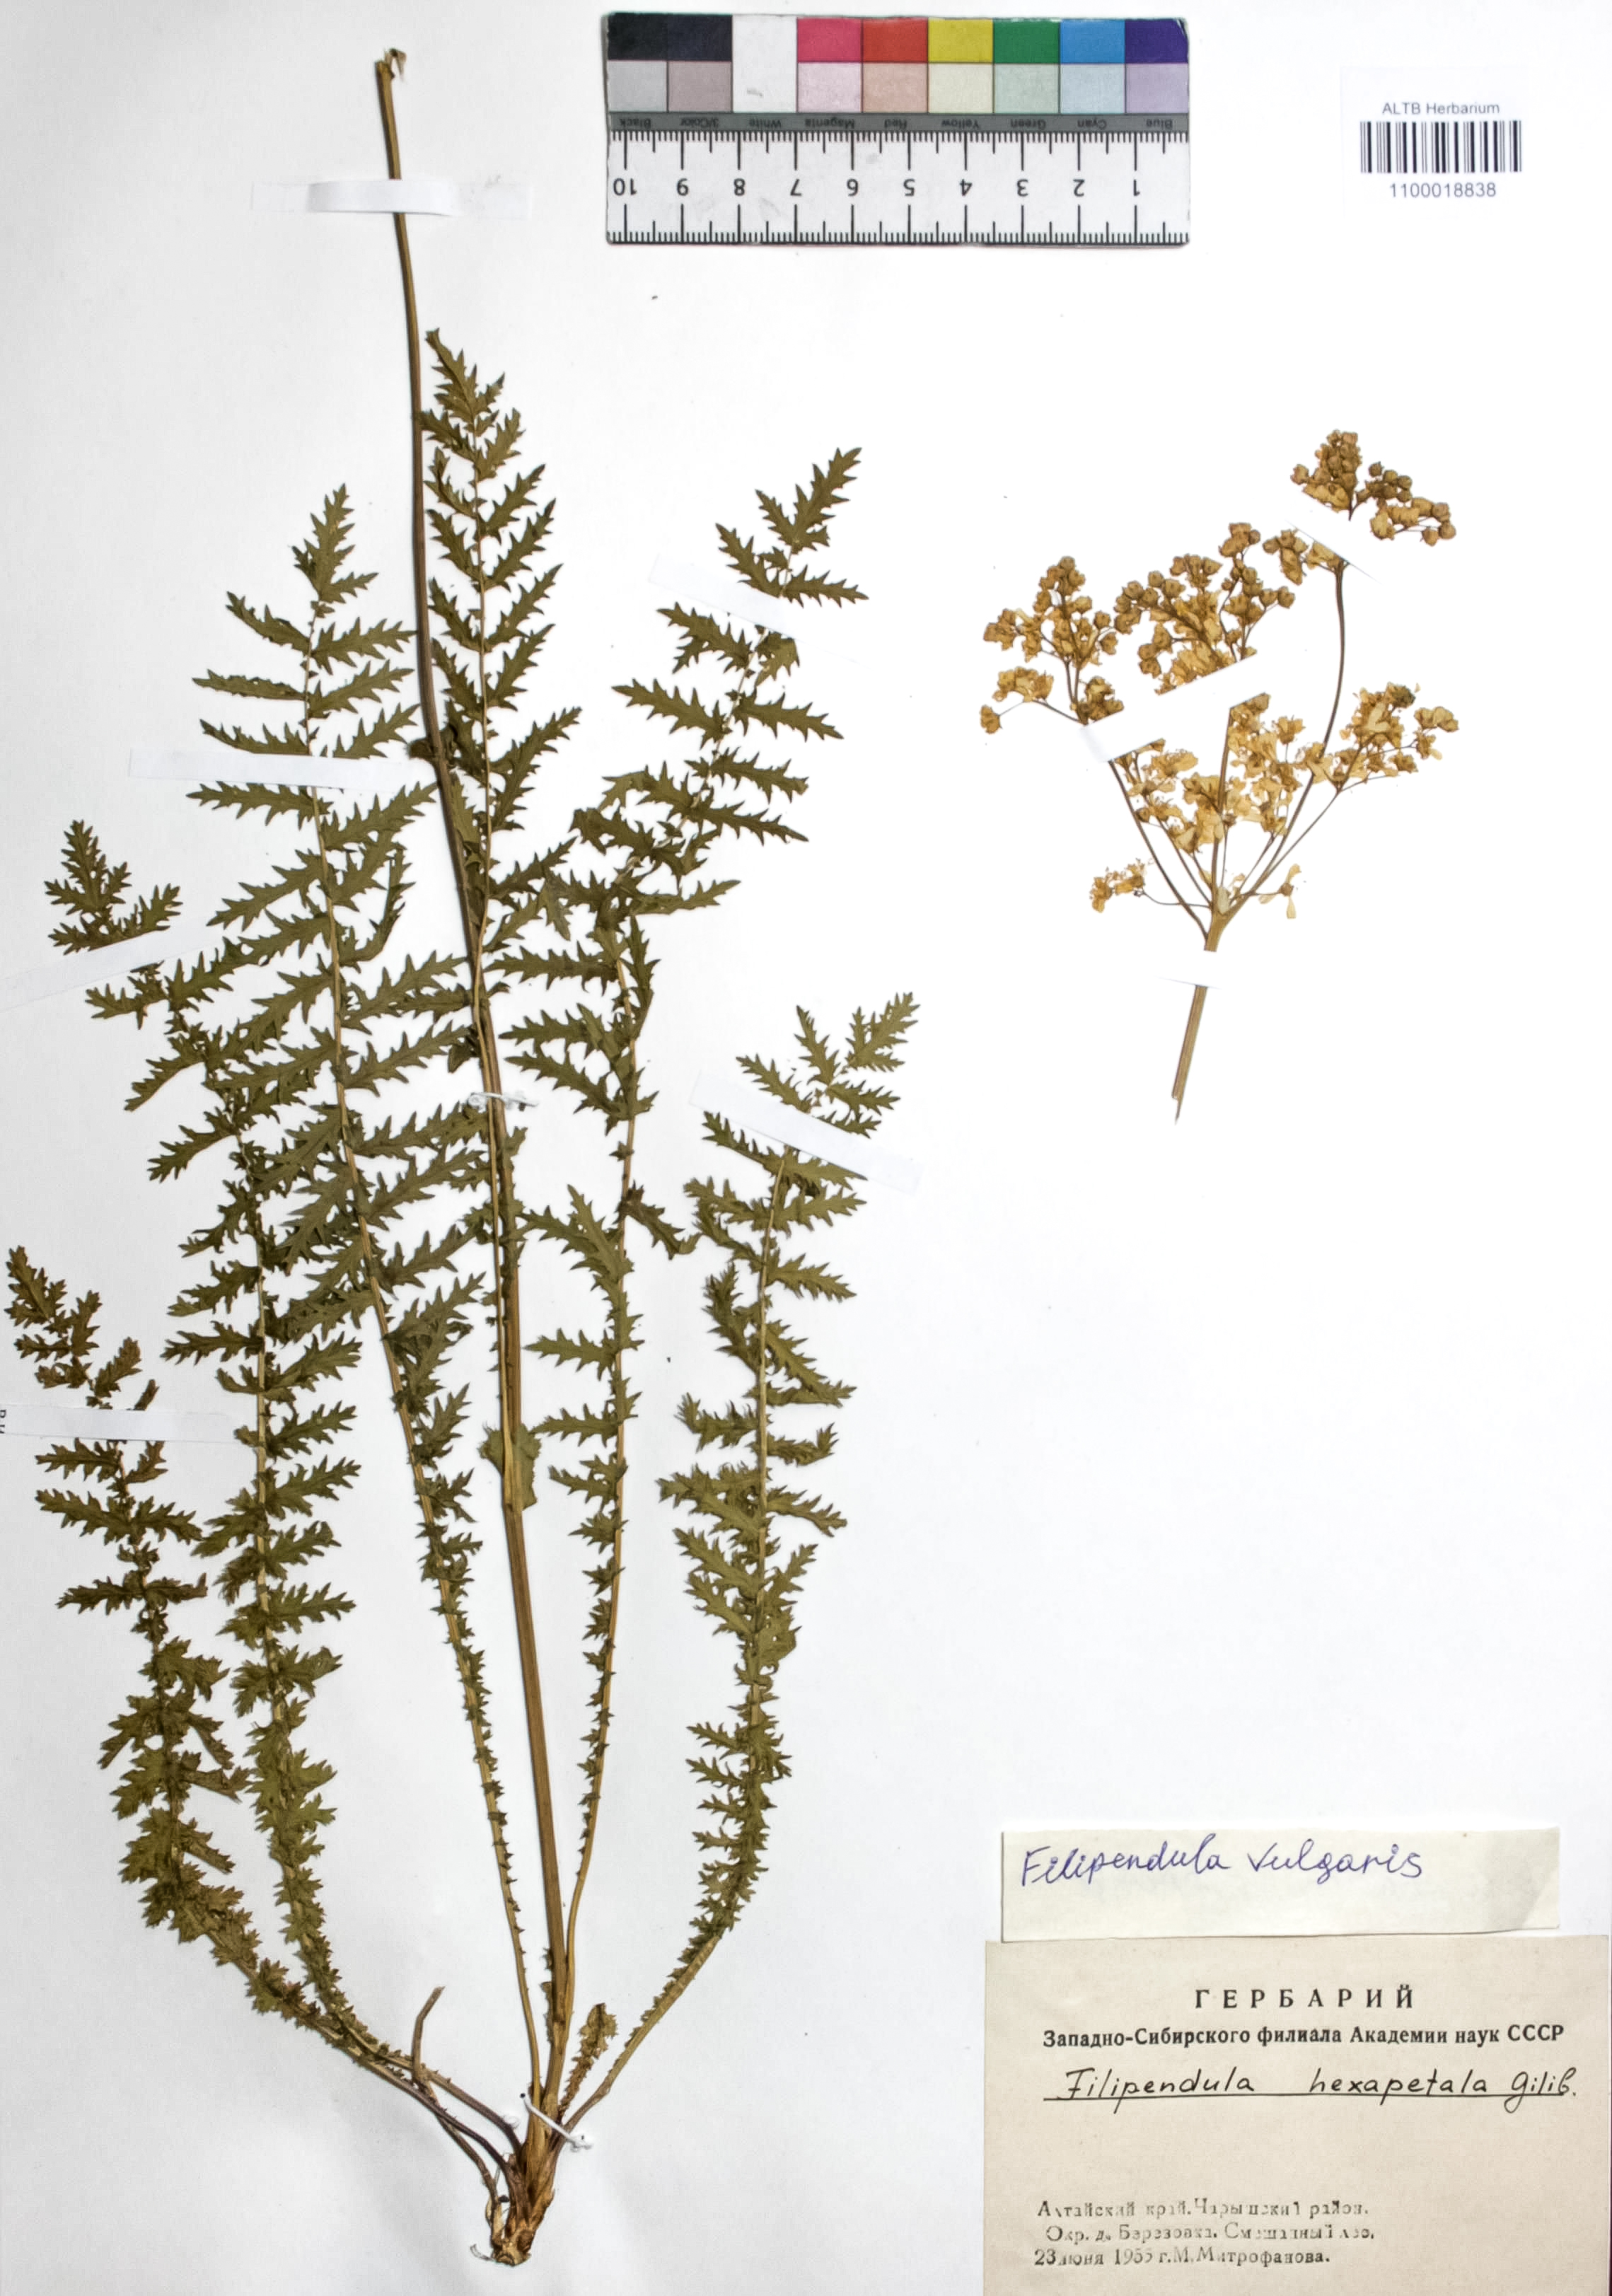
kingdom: Plantae
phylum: Tracheophyta
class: Magnoliopsida
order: Rosales
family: Rosaceae
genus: Filipendula
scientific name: Filipendula vulgaris
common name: Dropwort
